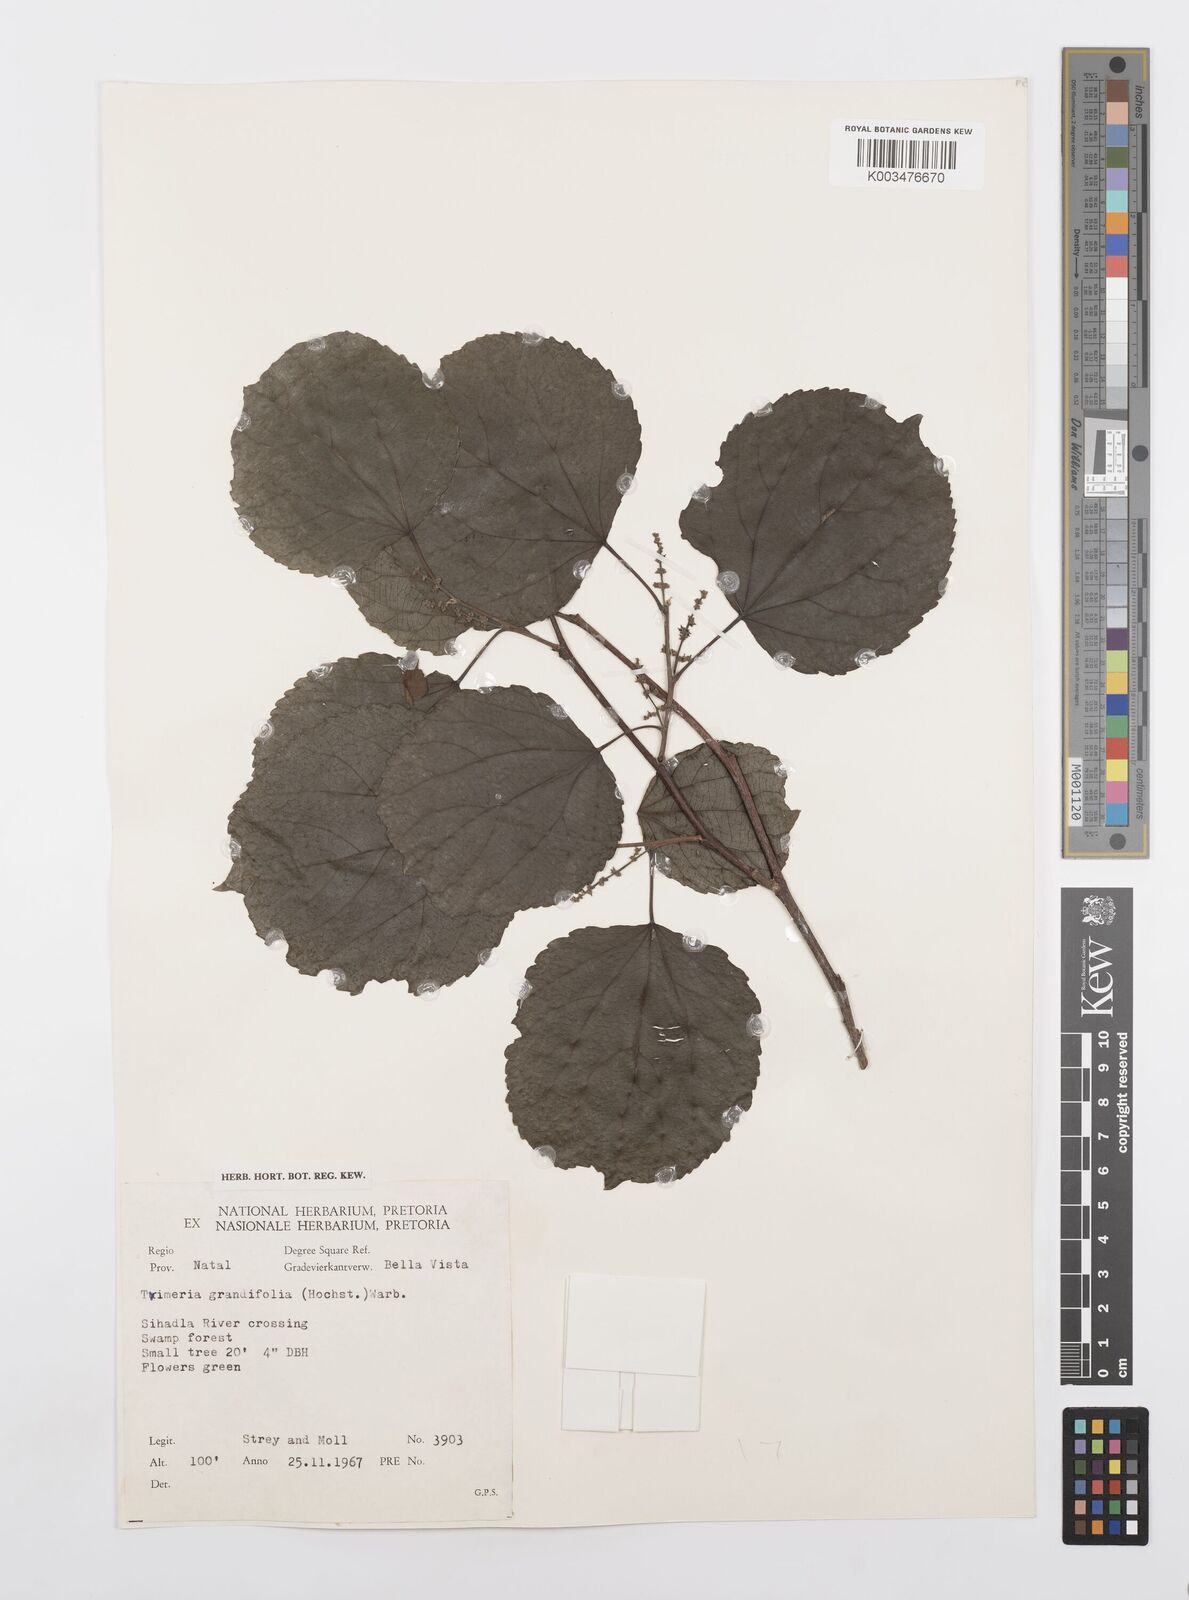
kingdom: Plantae
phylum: Tracheophyta
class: Magnoliopsida
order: Malpighiales
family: Salicaceae
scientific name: Salicaceae
